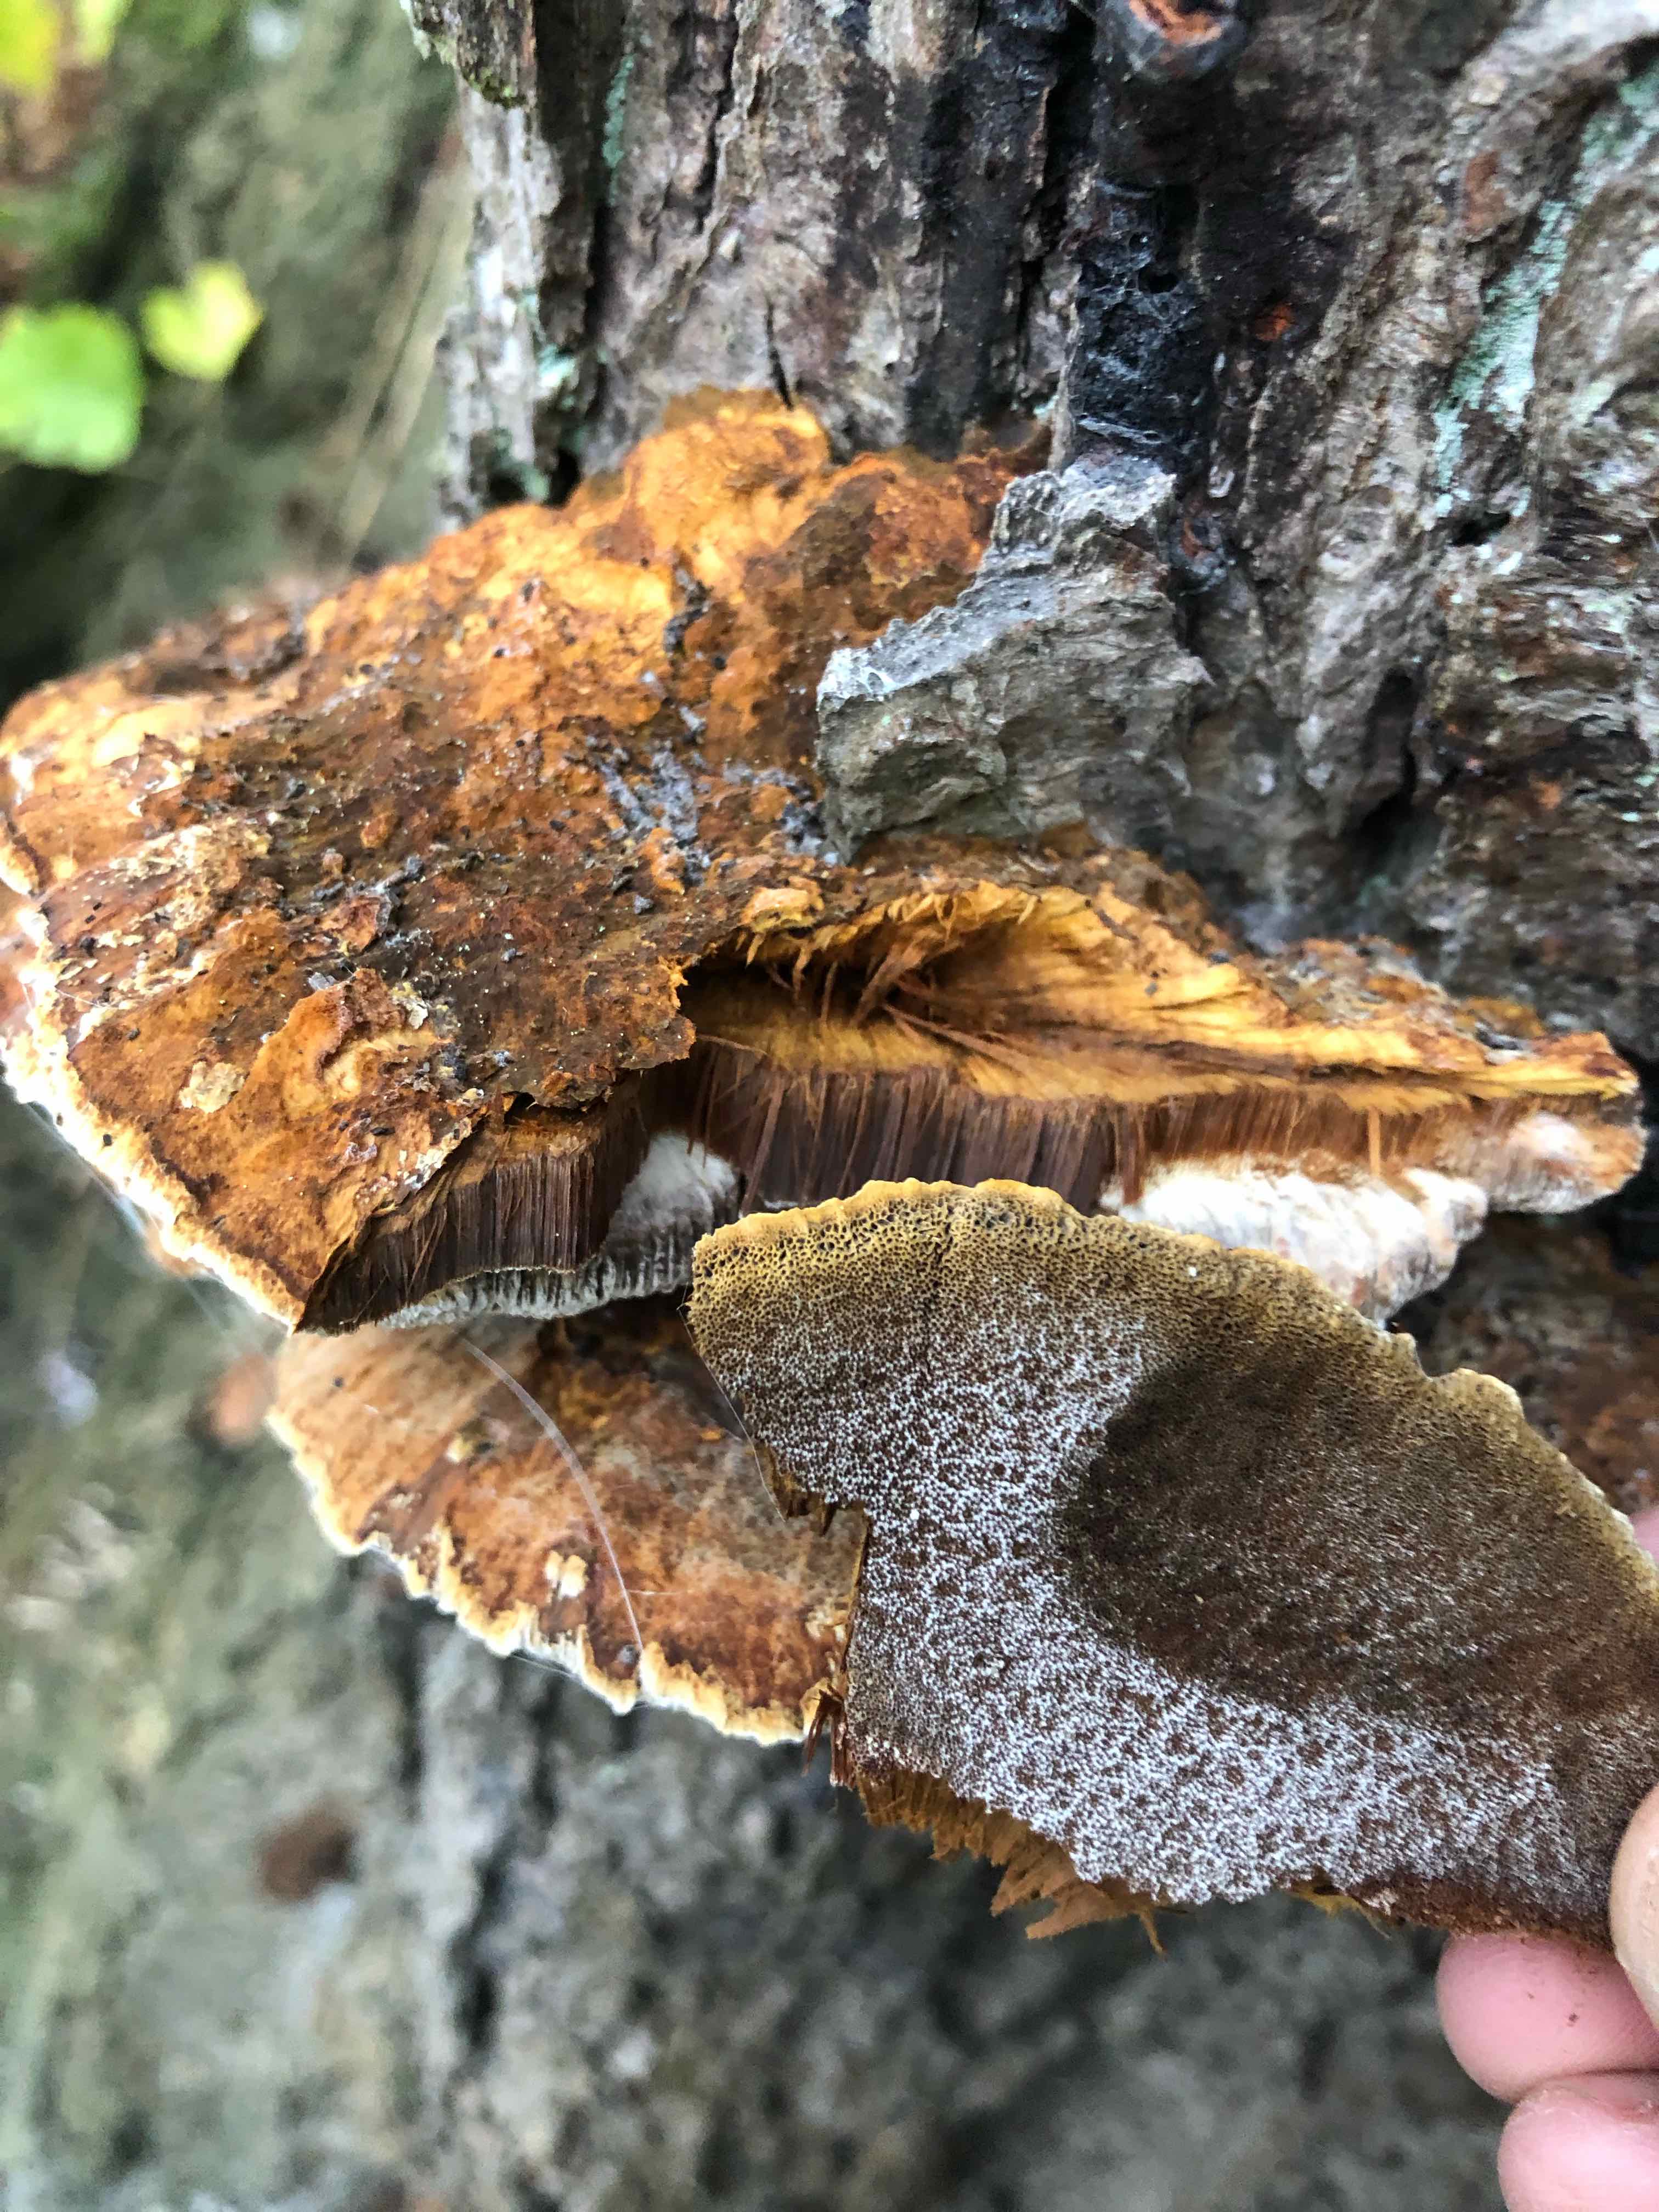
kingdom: Fungi
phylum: Basidiomycota
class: Agaricomycetes
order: Hymenochaetales
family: Hymenochaetaceae
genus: Xanthoporia
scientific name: Xanthoporia radiata
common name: elle-spejlporesvamp
